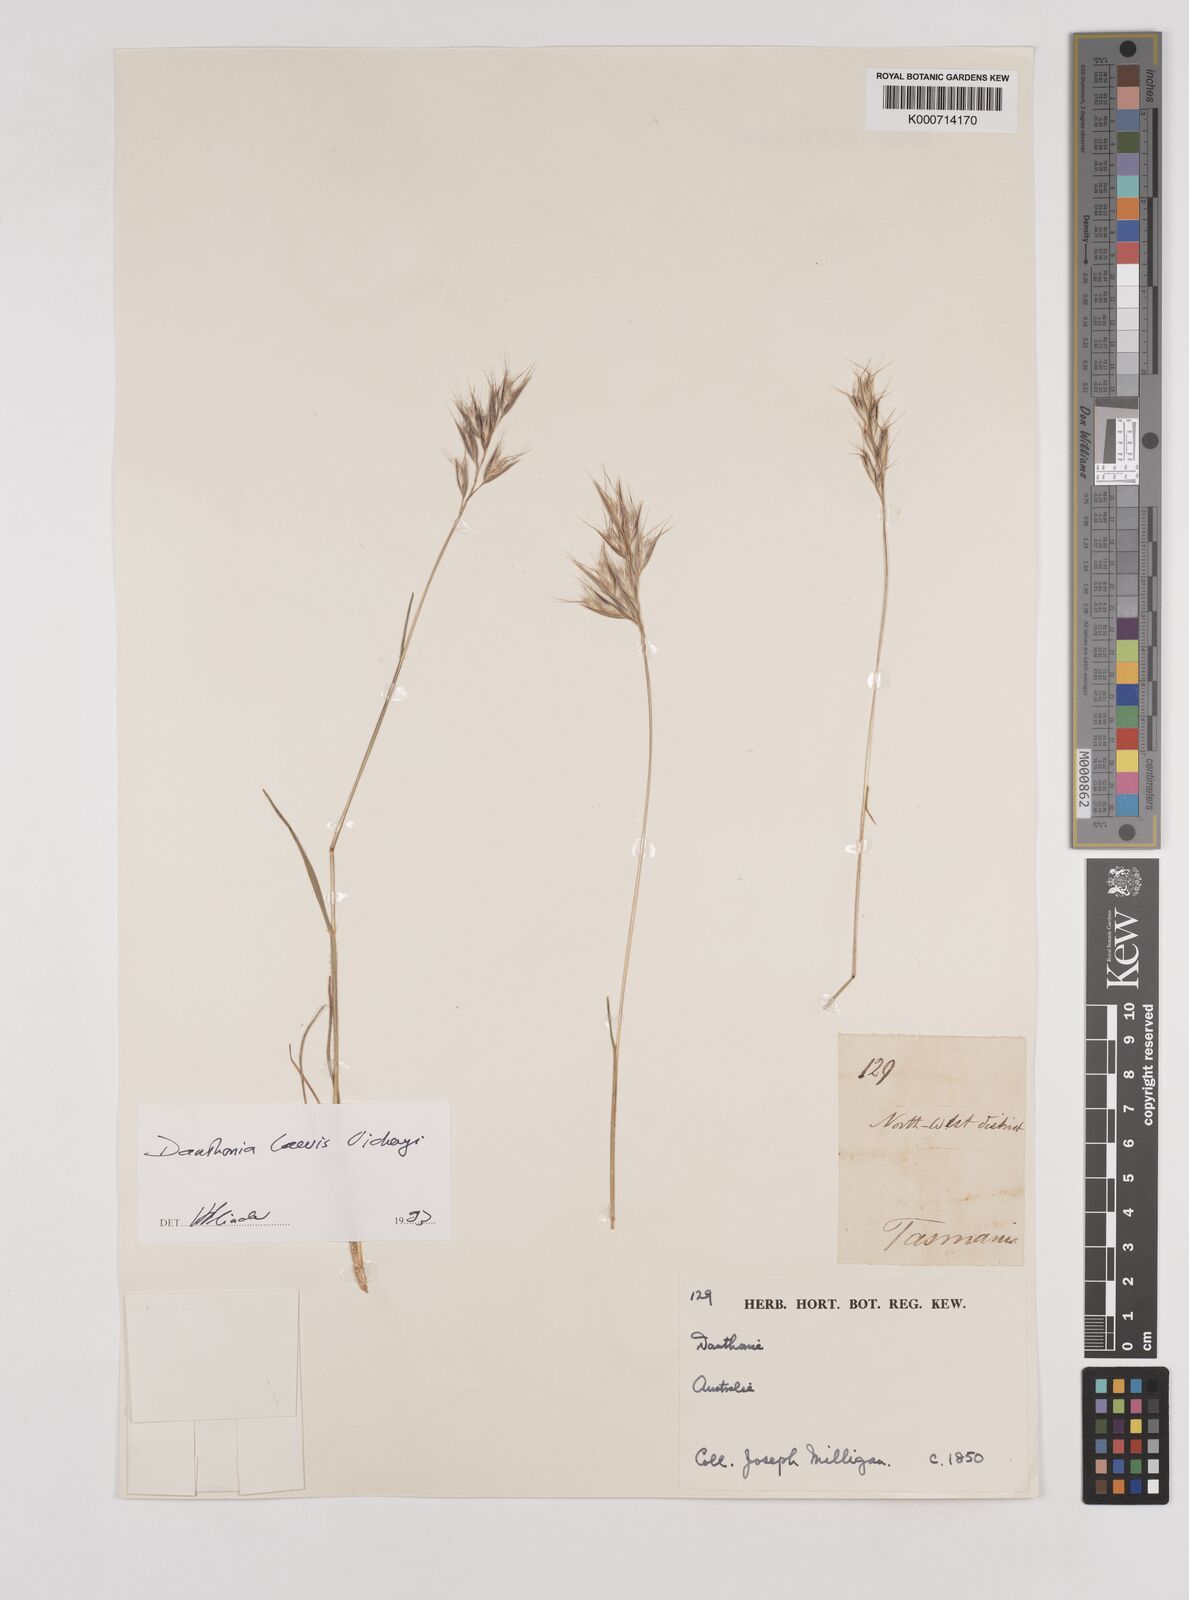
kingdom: Plantae
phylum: Tracheophyta
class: Liliopsida
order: Poales
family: Poaceae
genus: Rytidosperma
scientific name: Rytidosperma
